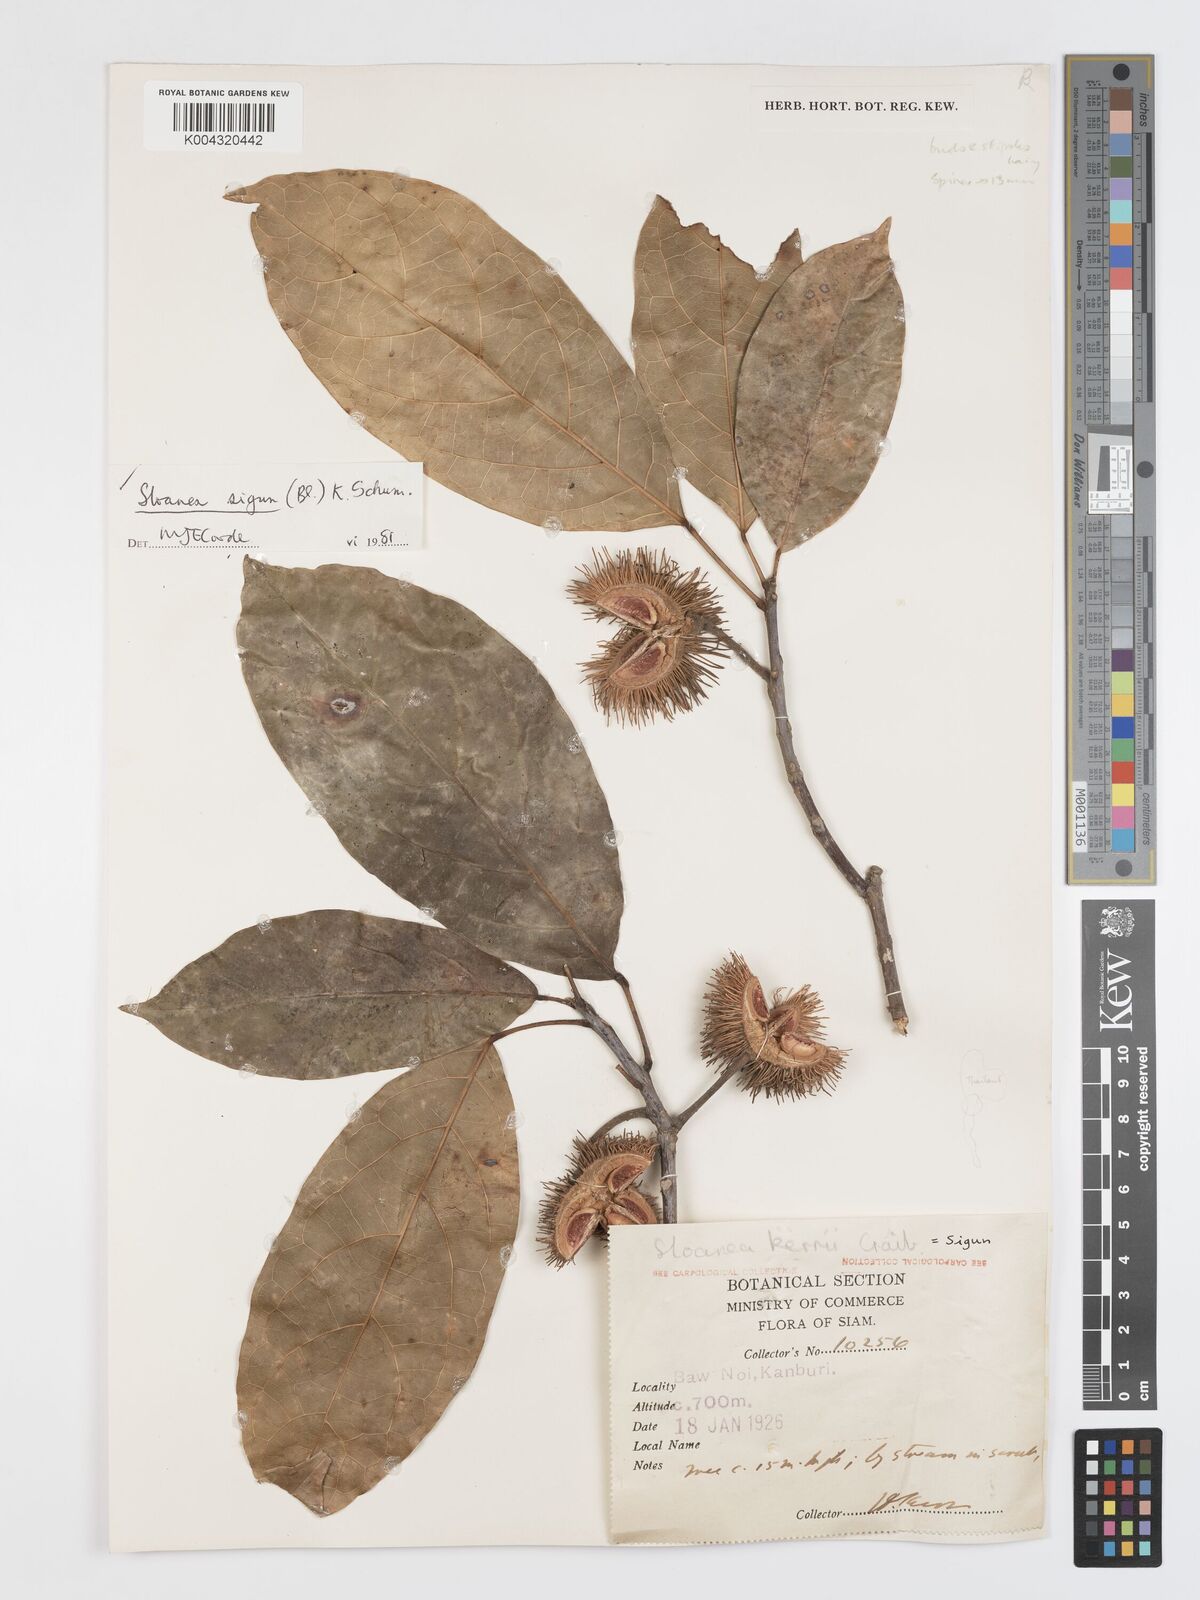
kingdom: Plantae
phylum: Tracheophyta
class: Magnoliopsida
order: Oxalidales
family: Elaeocarpaceae
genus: Sloanea
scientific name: Sloanea sigun
